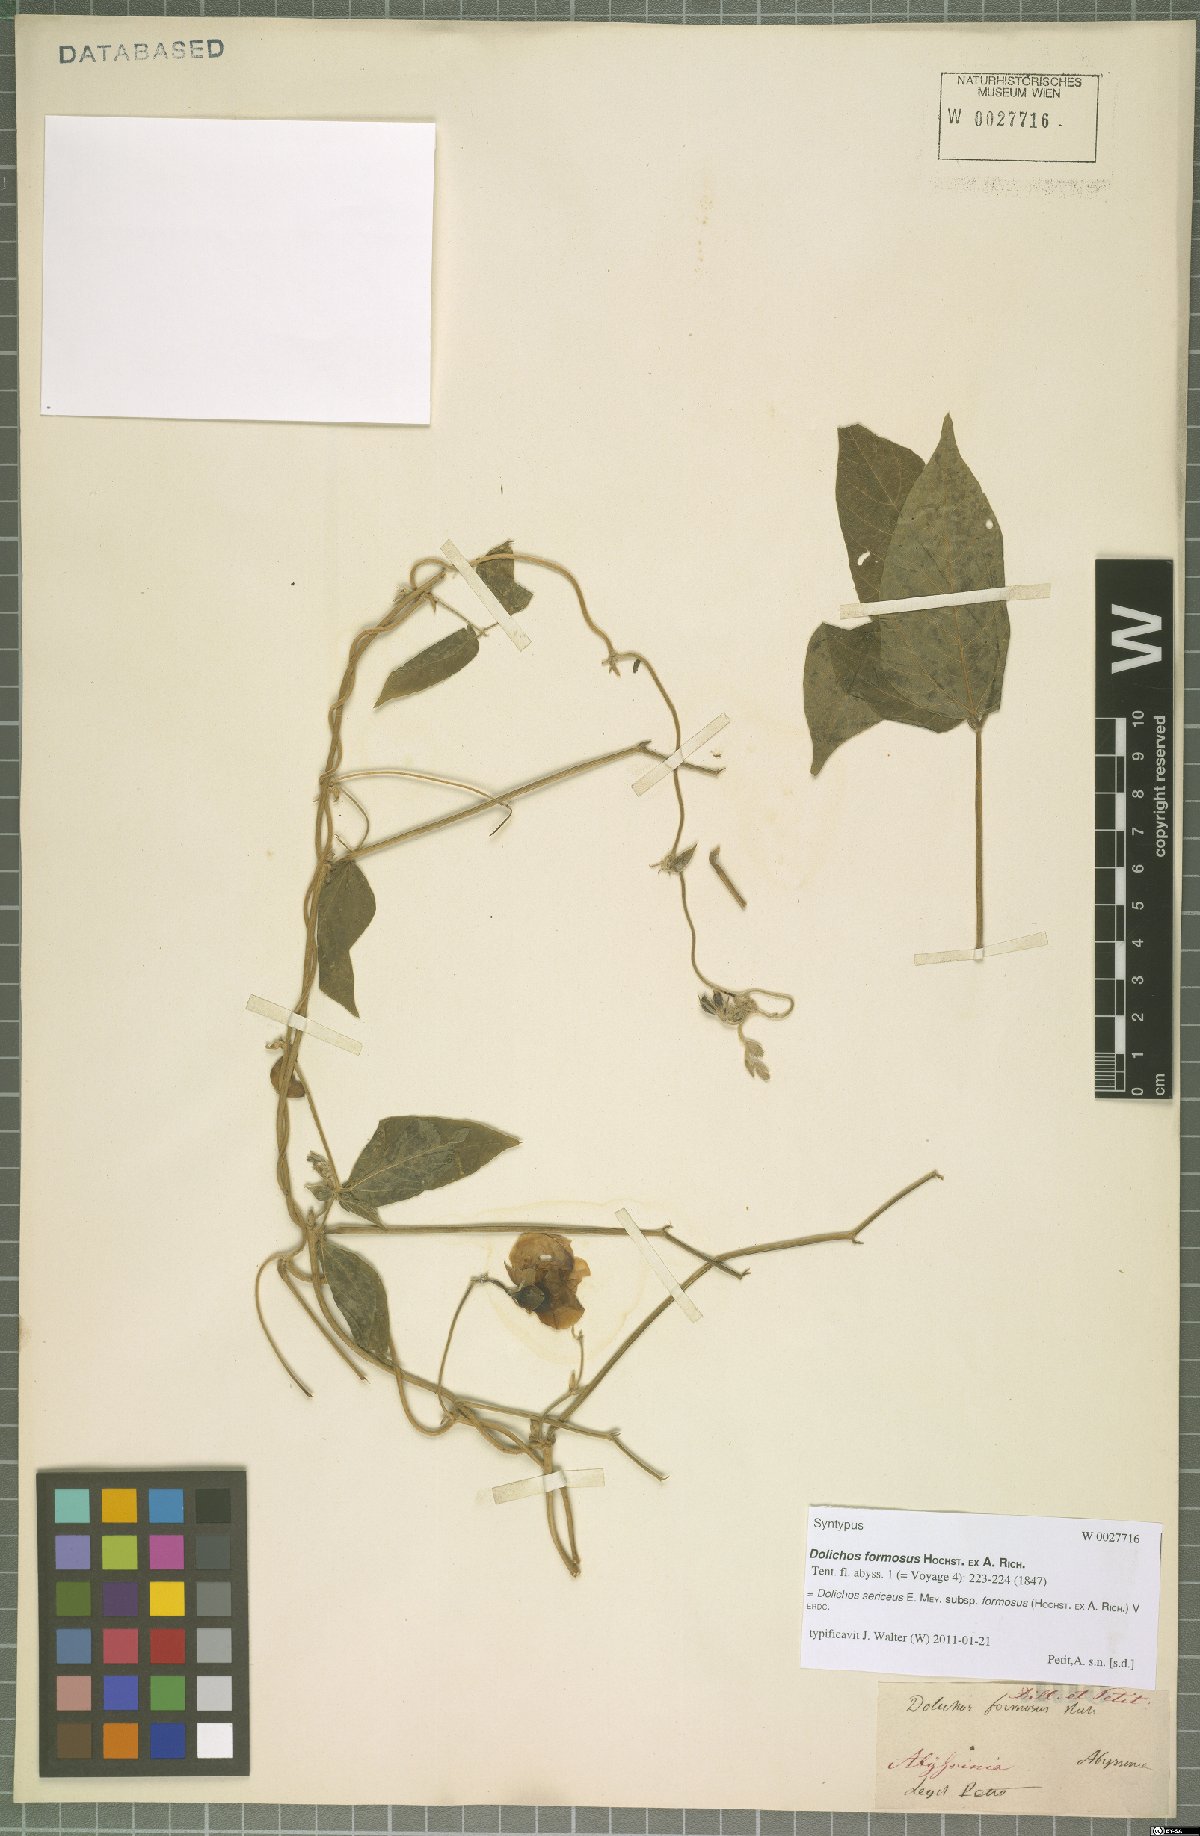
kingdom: Plantae
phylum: Tracheophyta
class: Magnoliopsida
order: Fabales
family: Fabaceae
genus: Dolichos
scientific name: Dolichos sericeus
